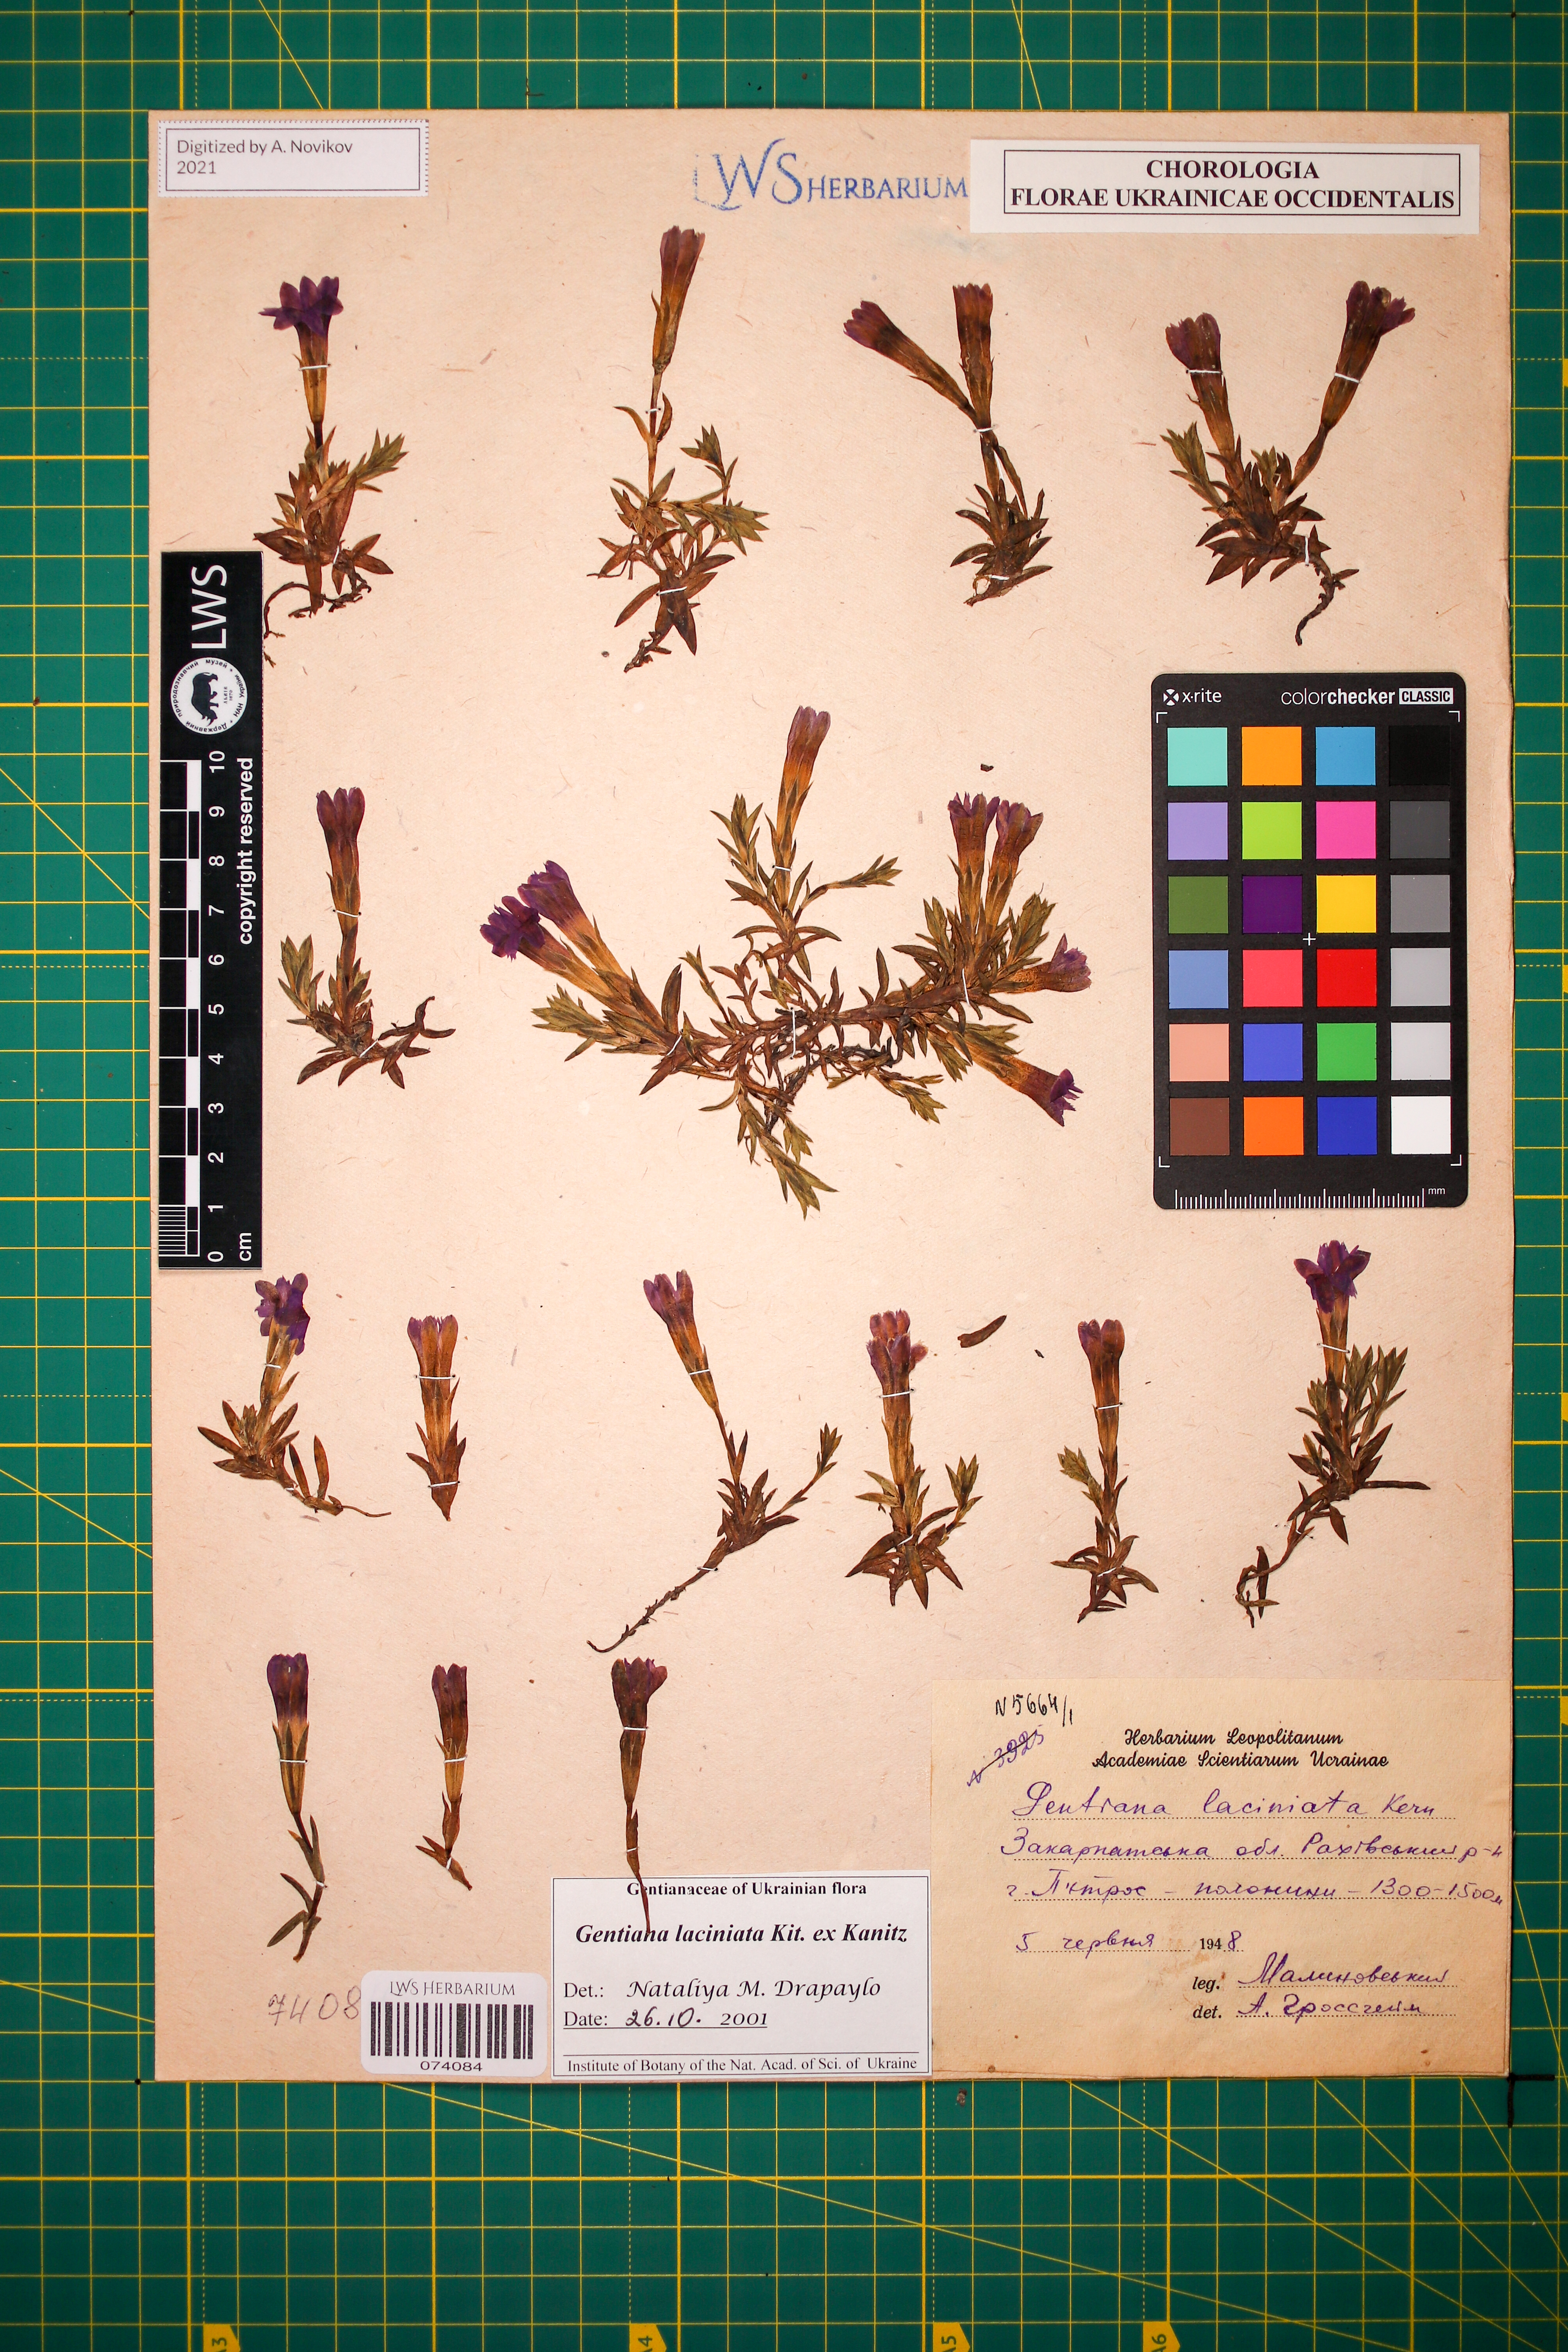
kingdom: Plantae
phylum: Tracheophyta
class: Magnoliopsida
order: Gentianales
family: Gentianaceae
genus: Gentiana
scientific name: Gentiana laciniata
